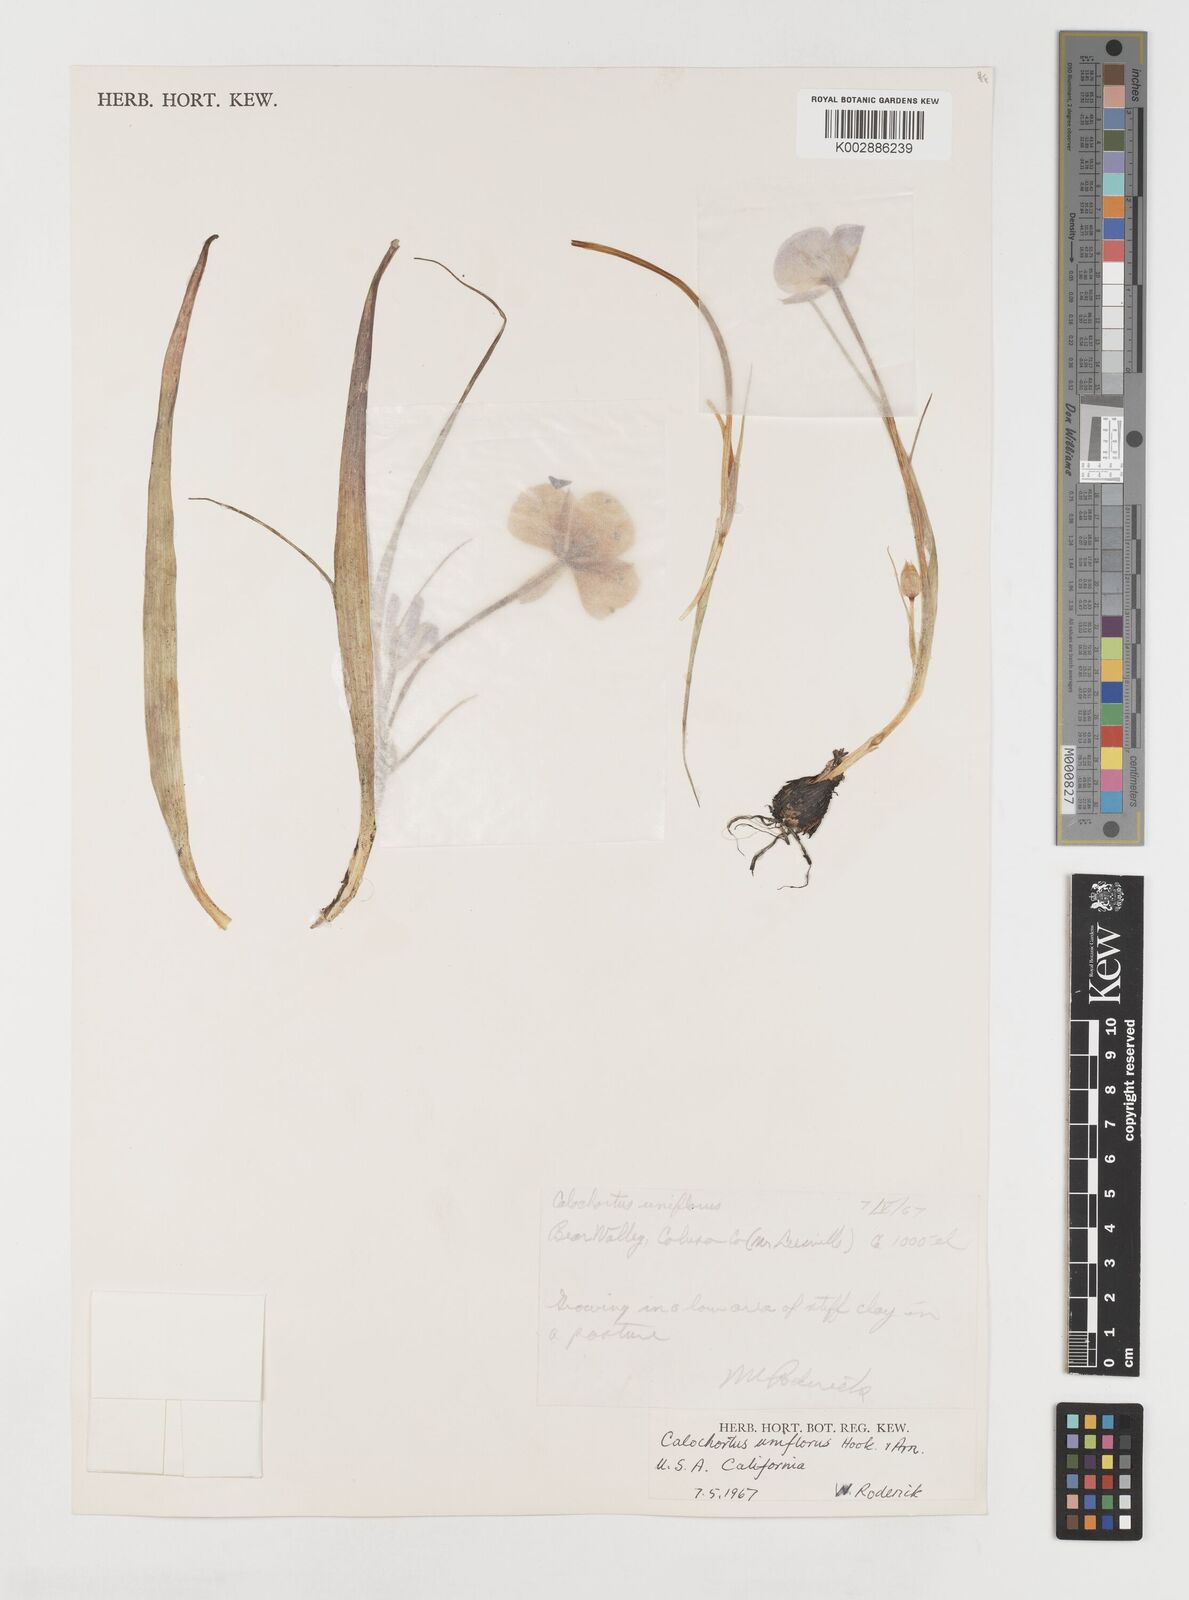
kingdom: Plantae
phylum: Tracheophyta
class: Liliopsida
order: Liliales
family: Liliaceae
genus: Calochortus
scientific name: Calochortus uniflorus
